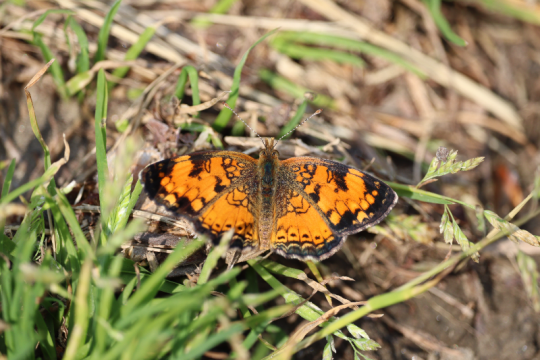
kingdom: Animalia
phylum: Arthropoda
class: Insecta
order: Lepidoptera
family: Nymphalidae
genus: Phyciodes
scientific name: Phyciodes
